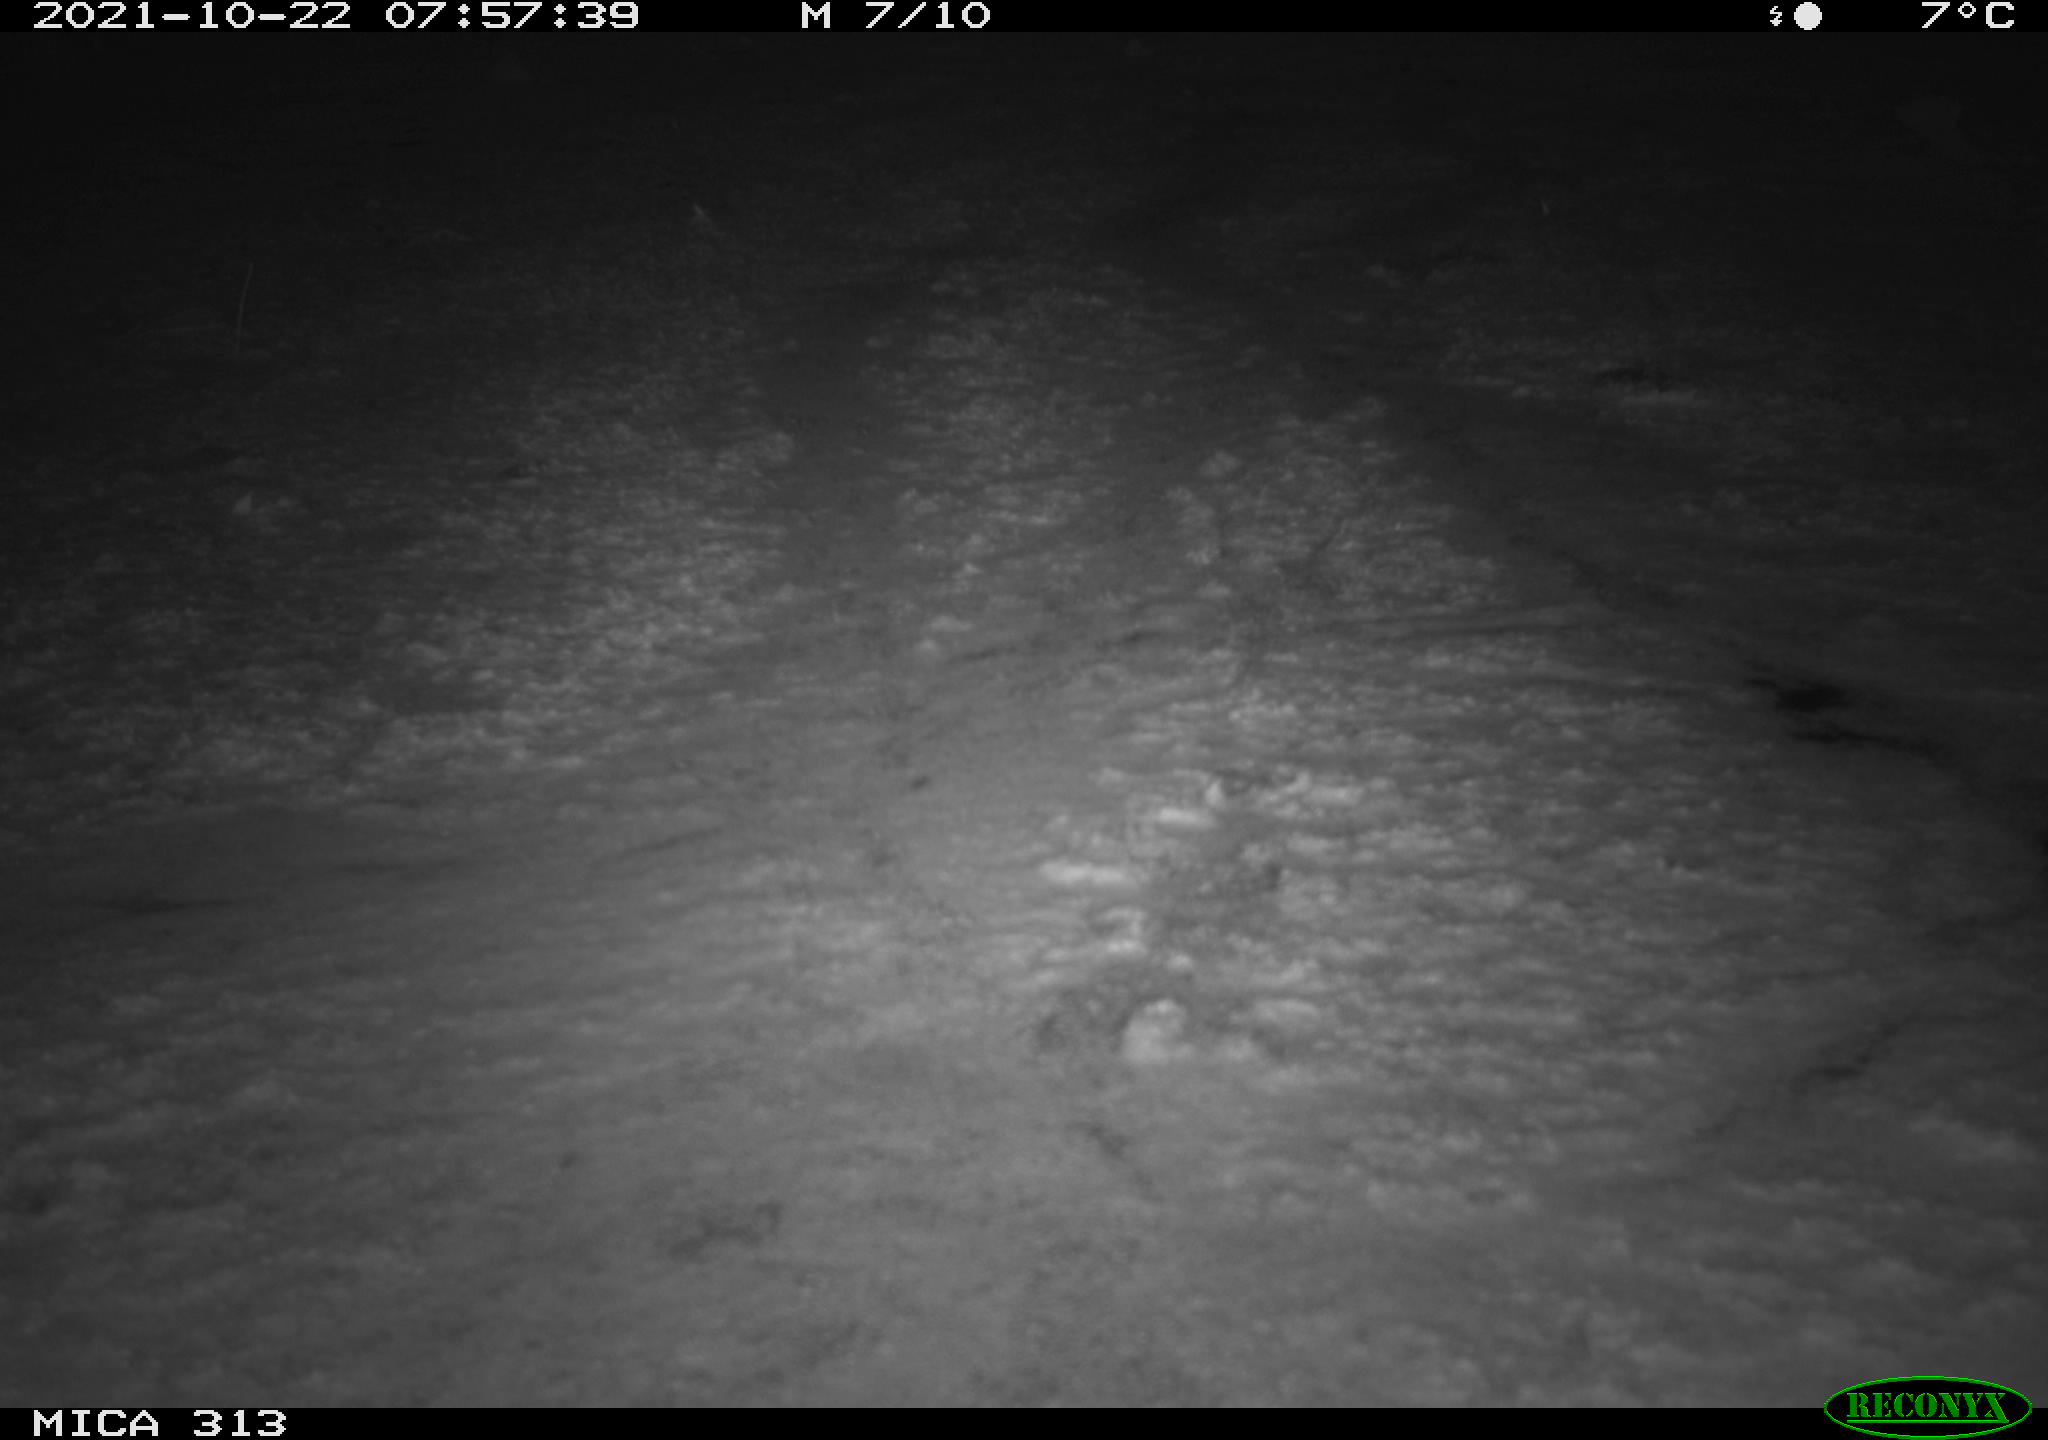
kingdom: Animalia
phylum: Chordata
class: Aves
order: Gruiformes
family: Rallidae
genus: Gallinula
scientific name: Gallinula chloropus
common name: Common moorhen
